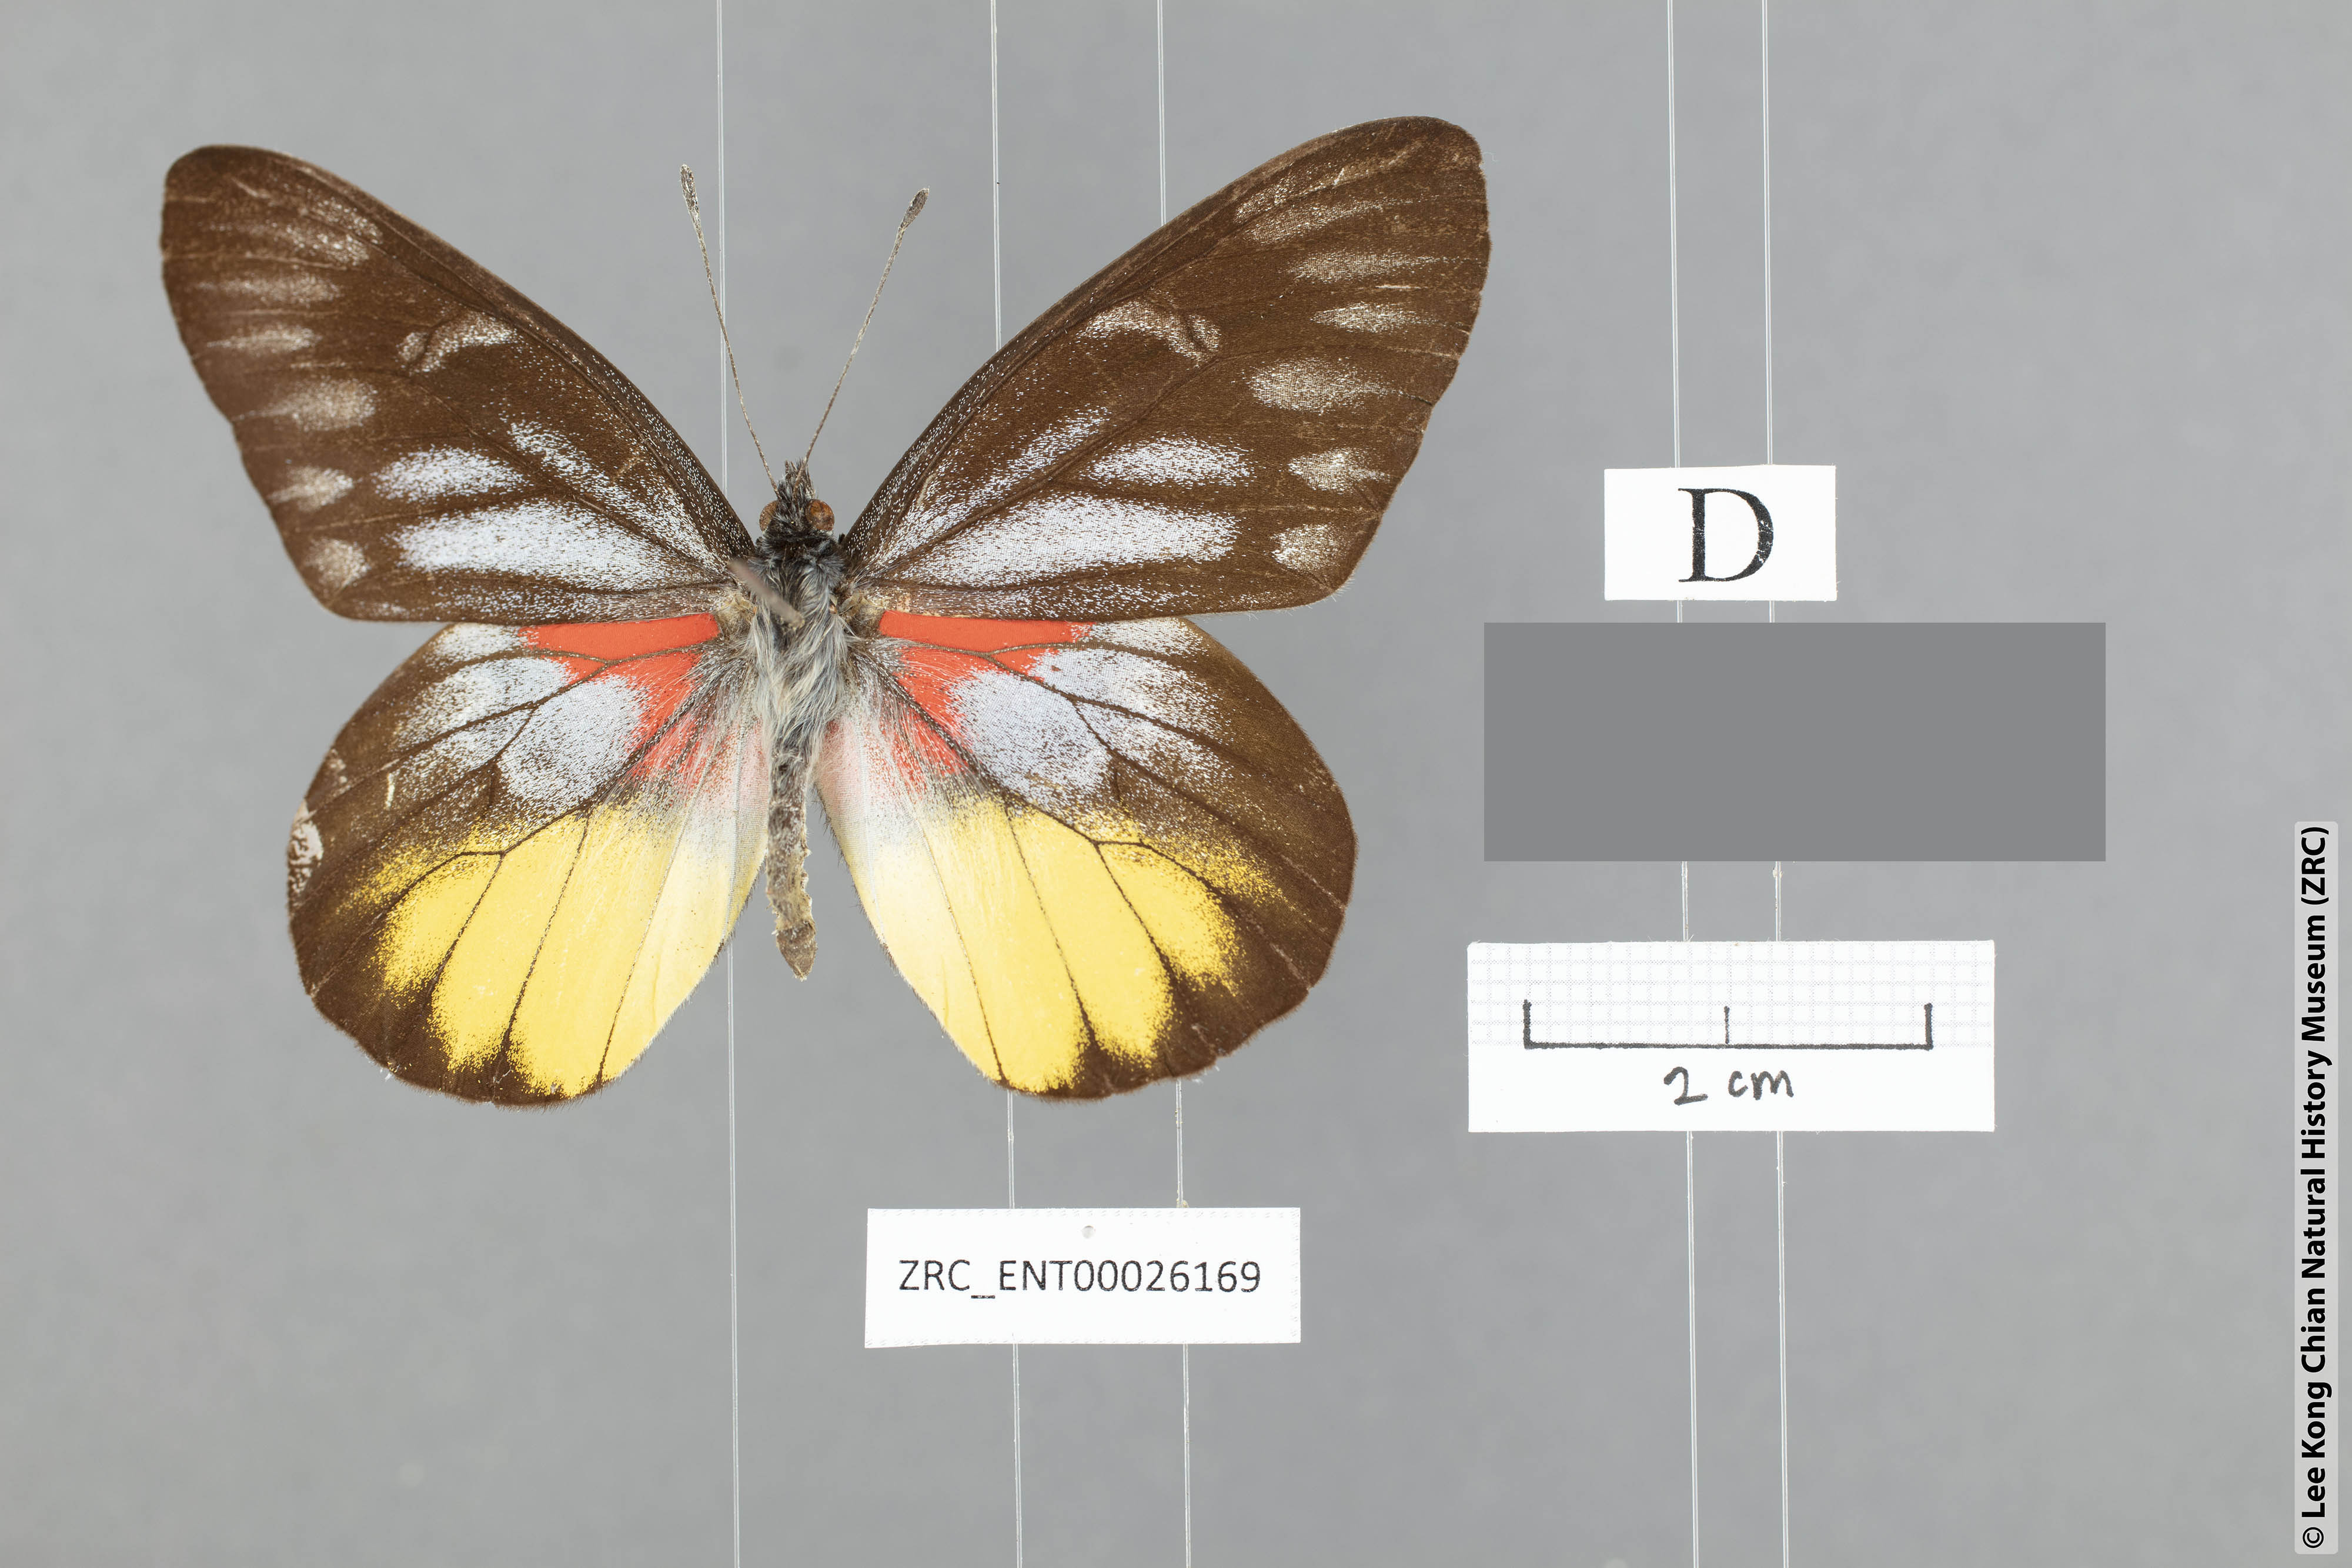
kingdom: Animalia
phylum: Arthropoda
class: Insecta
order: Lepidoptera
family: Pieridae
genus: Delias
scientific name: Delias acalis
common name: Red-breast jezebel
